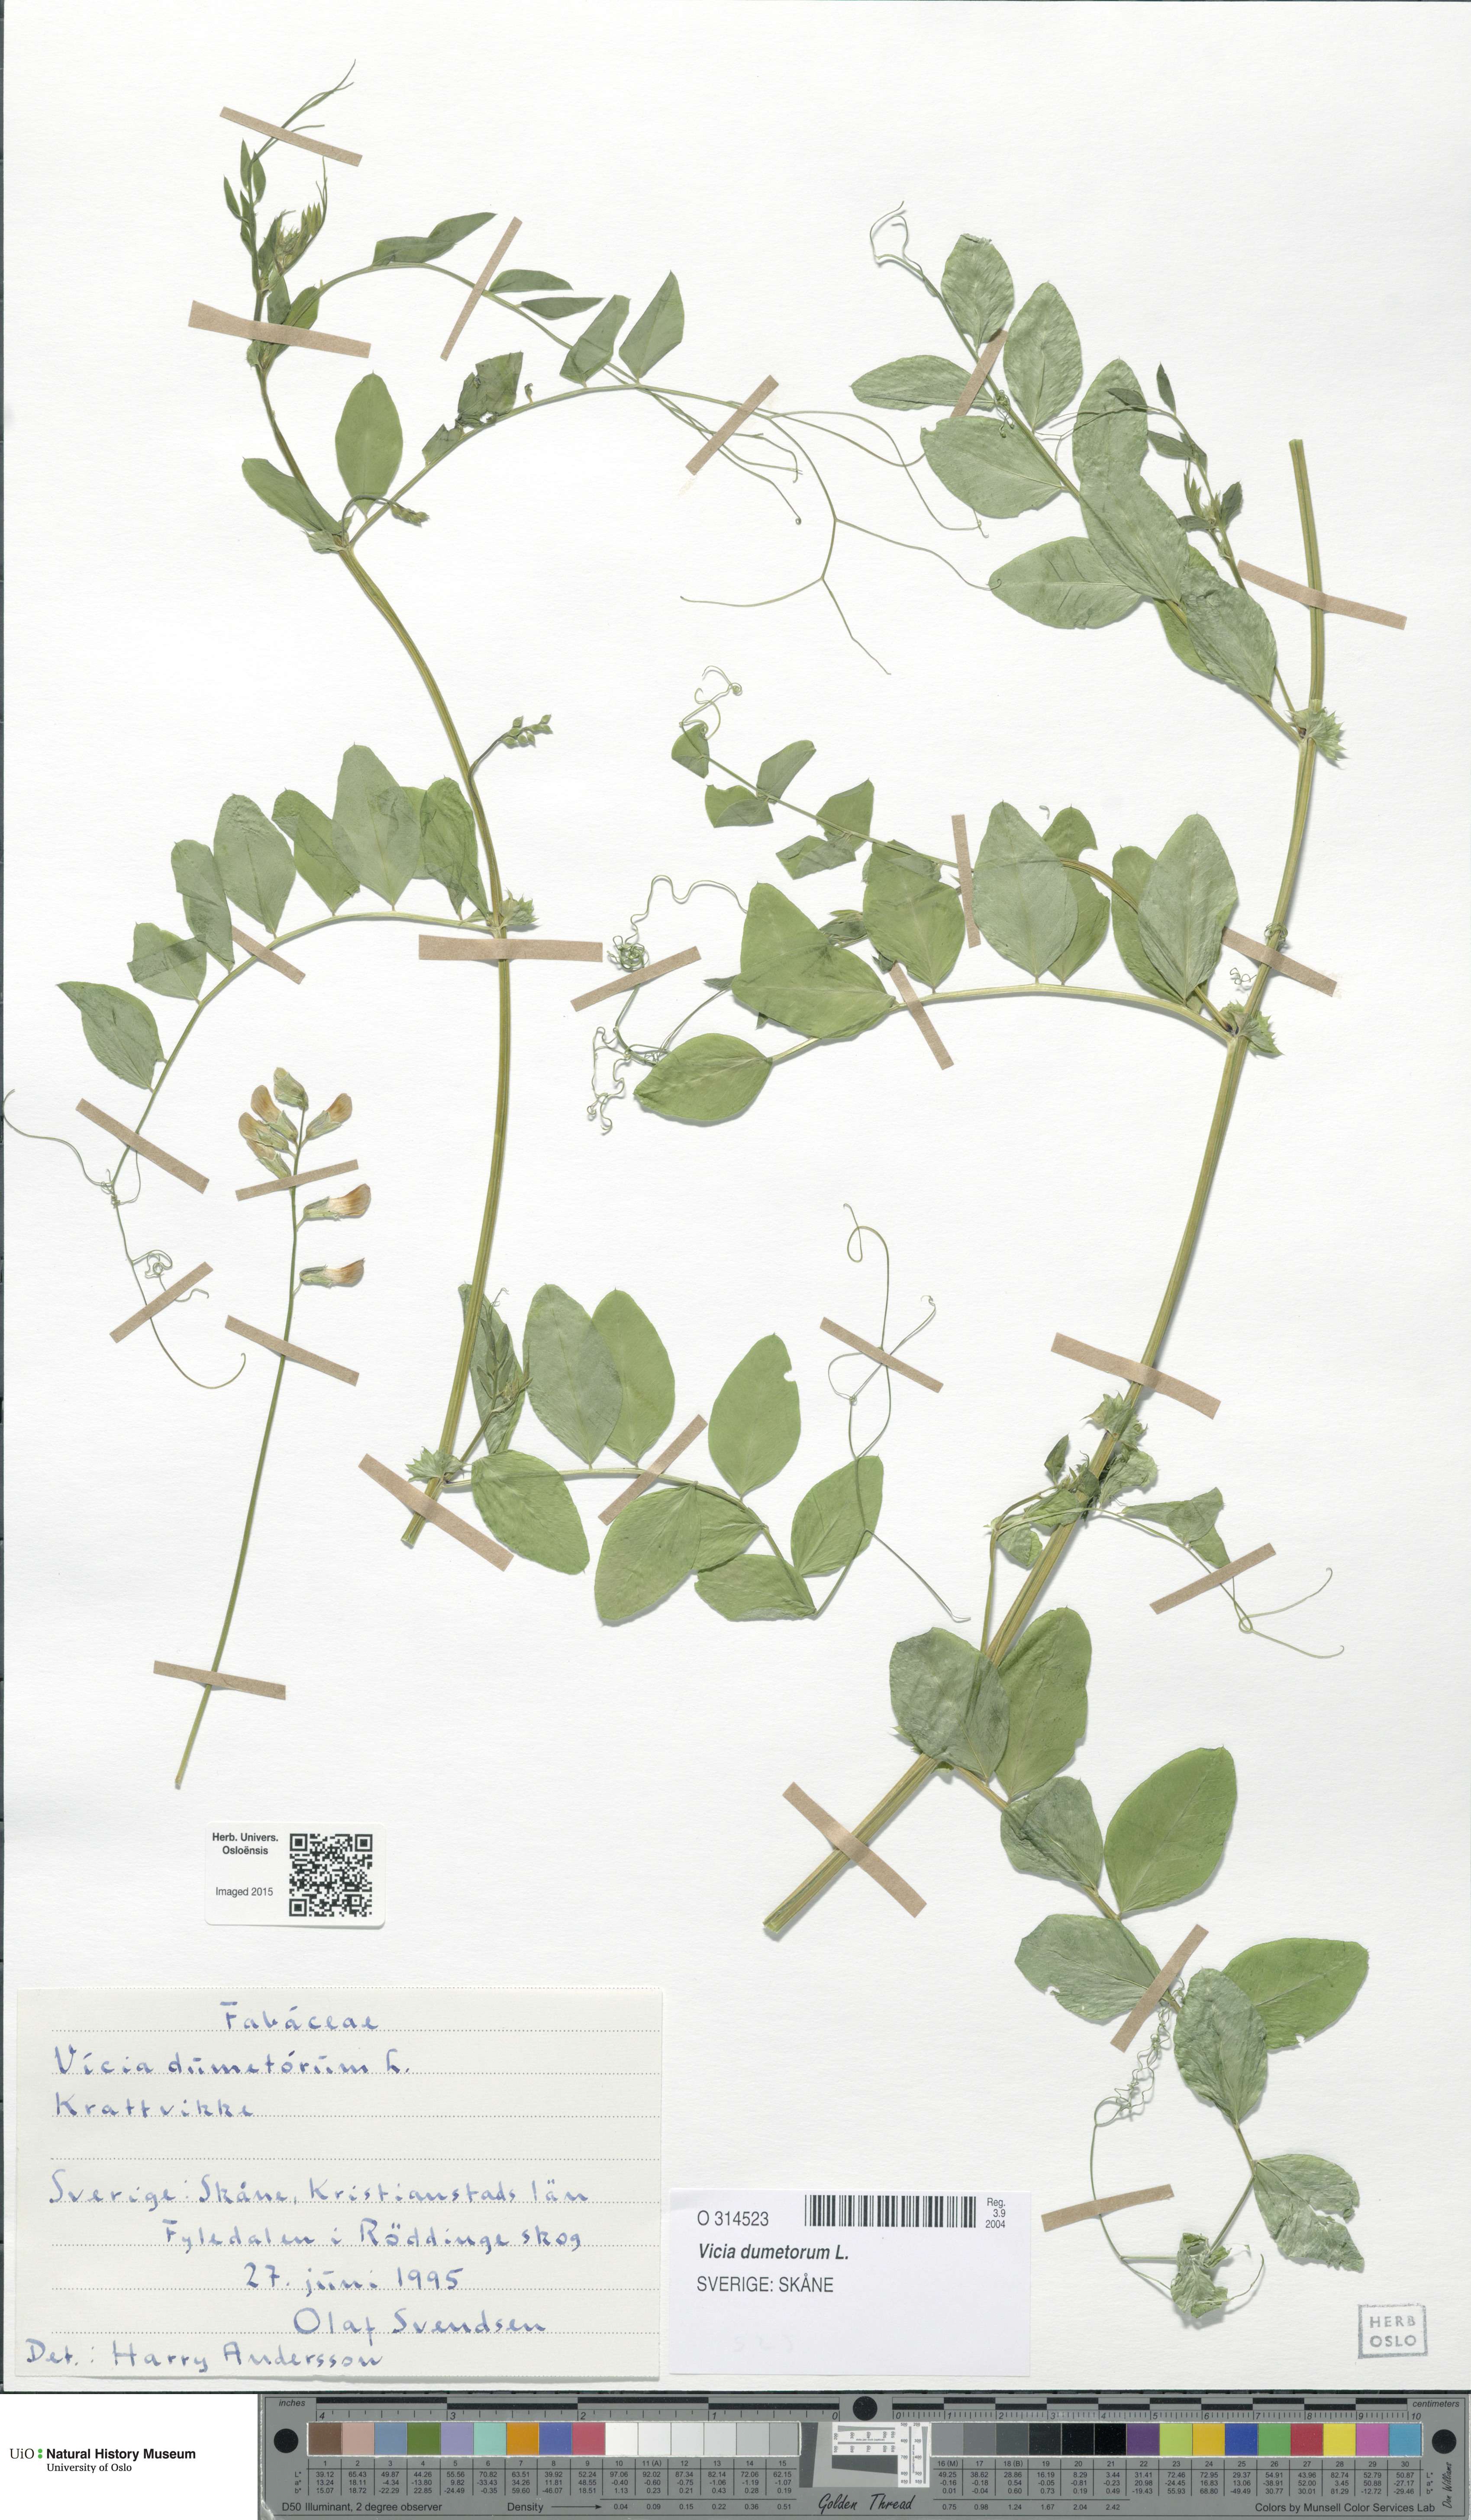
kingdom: Plantae
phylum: Tracheophyta
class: Magnoliopsida
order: Fabales
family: Fabaceae
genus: Vicia
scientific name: Vicia dumetorum
